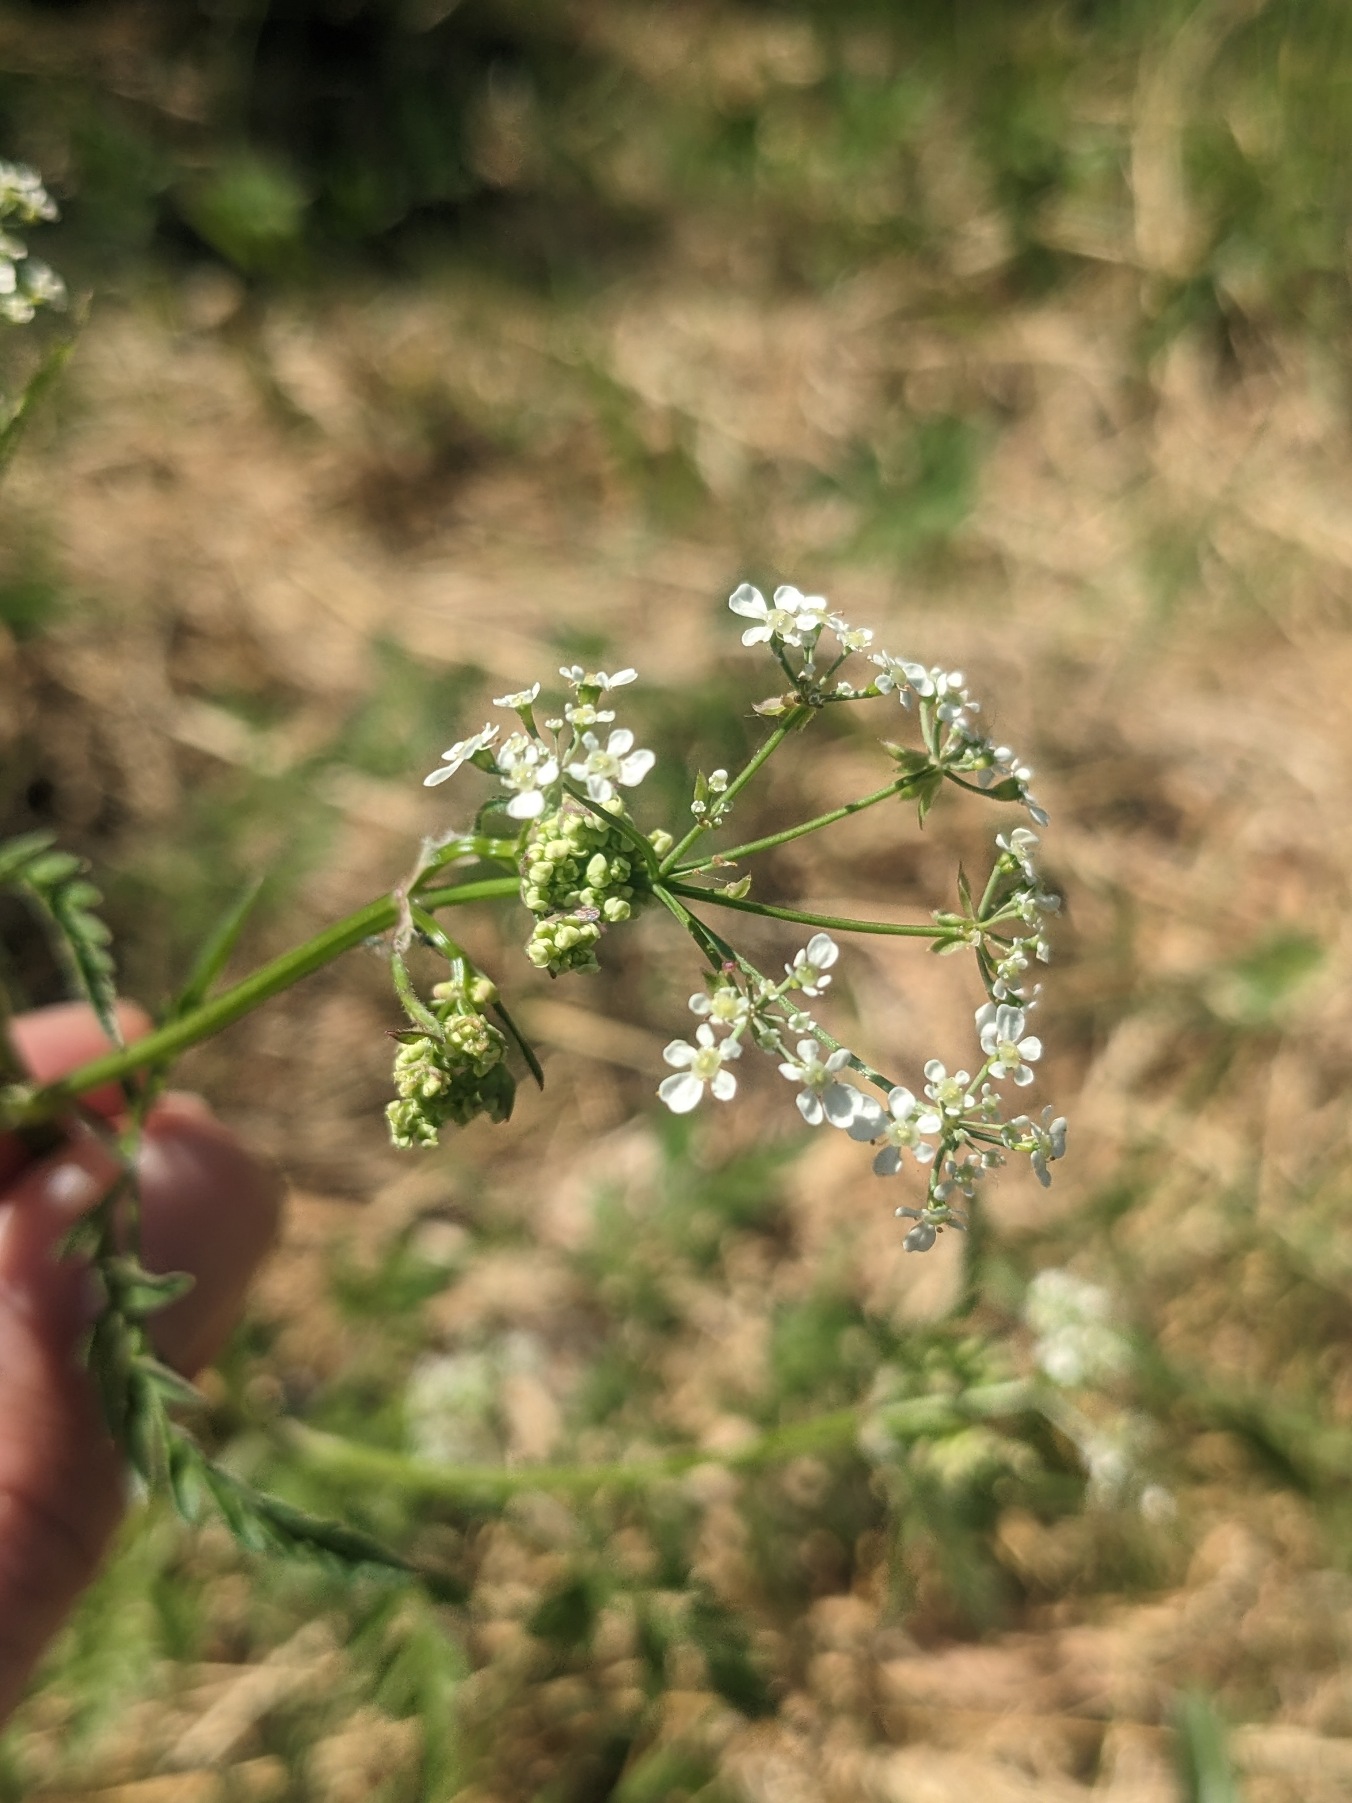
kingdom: Plantae
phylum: Tracheophyta
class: Magnoliopsida
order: Apiales
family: Apiaceae
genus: Anthriscus
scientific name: Anthriscus sylvestris
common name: Vild kørvel
